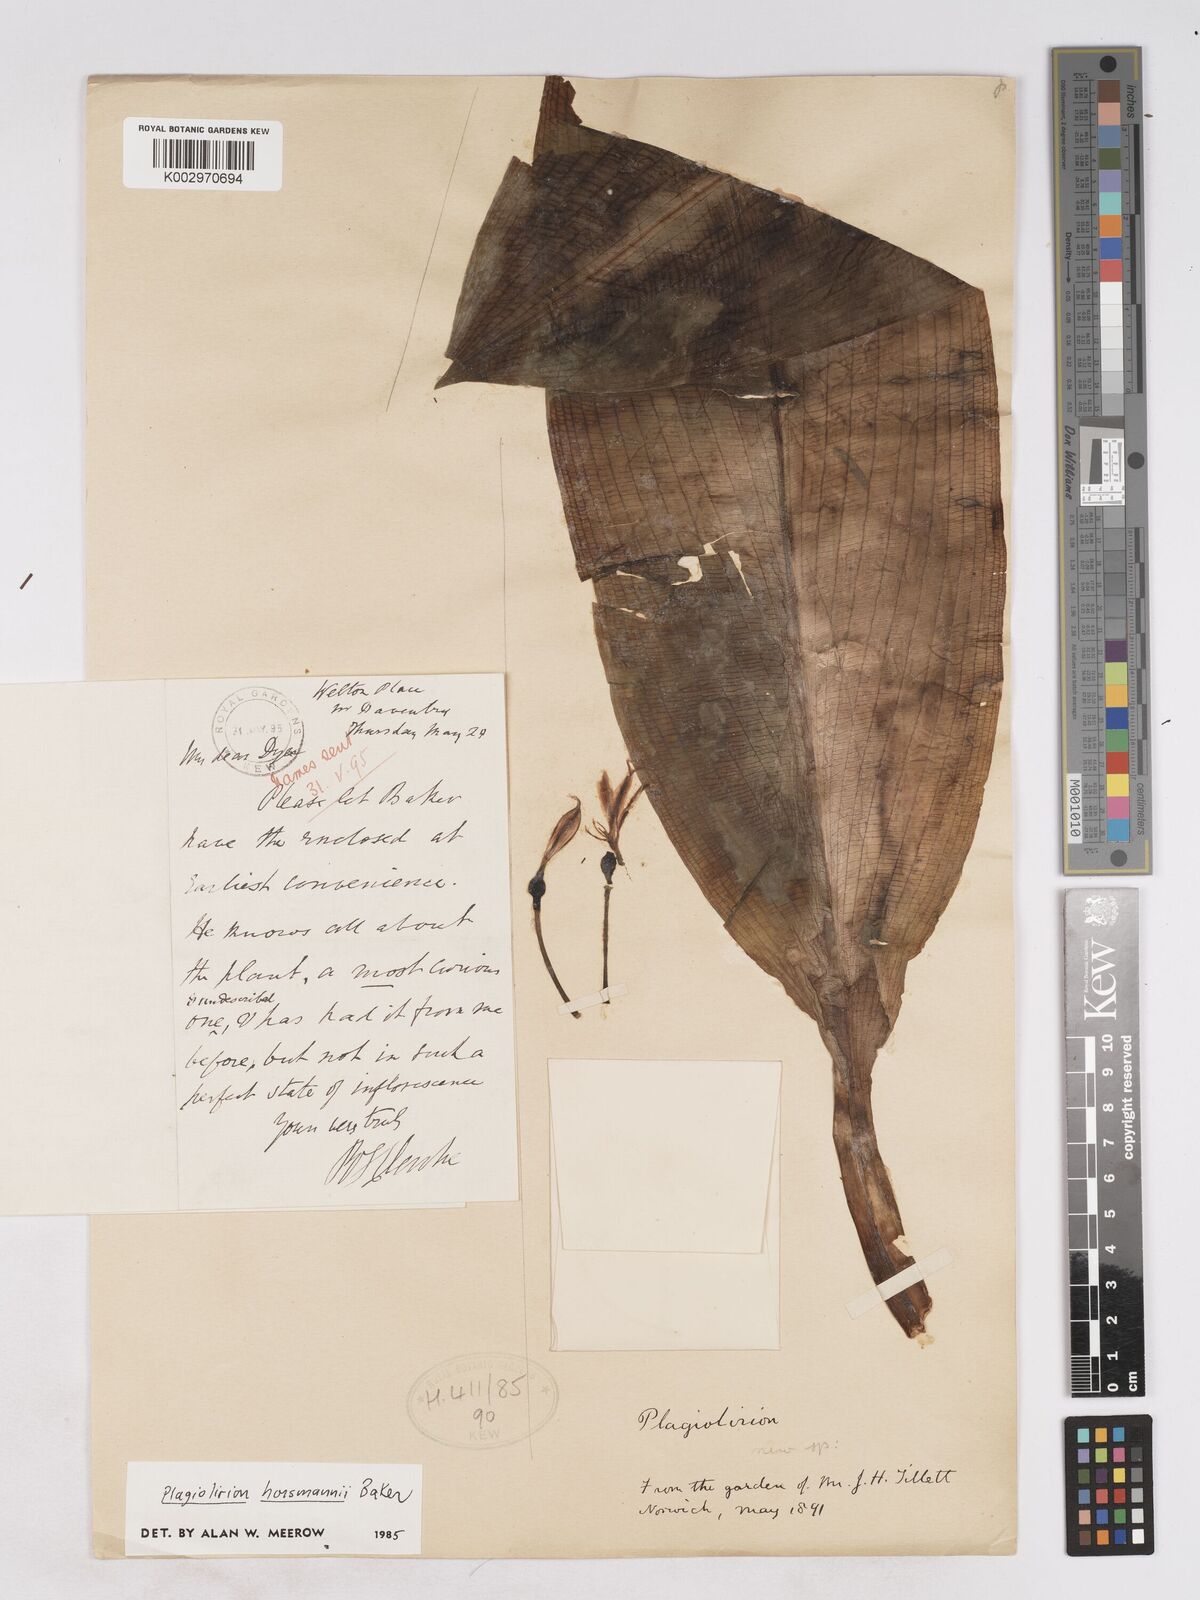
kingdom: Plantae
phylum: Tracheophyta
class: Liliopsida
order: Asparagales
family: Amaryllidaceae
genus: Plagiolirion
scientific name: Plagiolirion horsmannii
